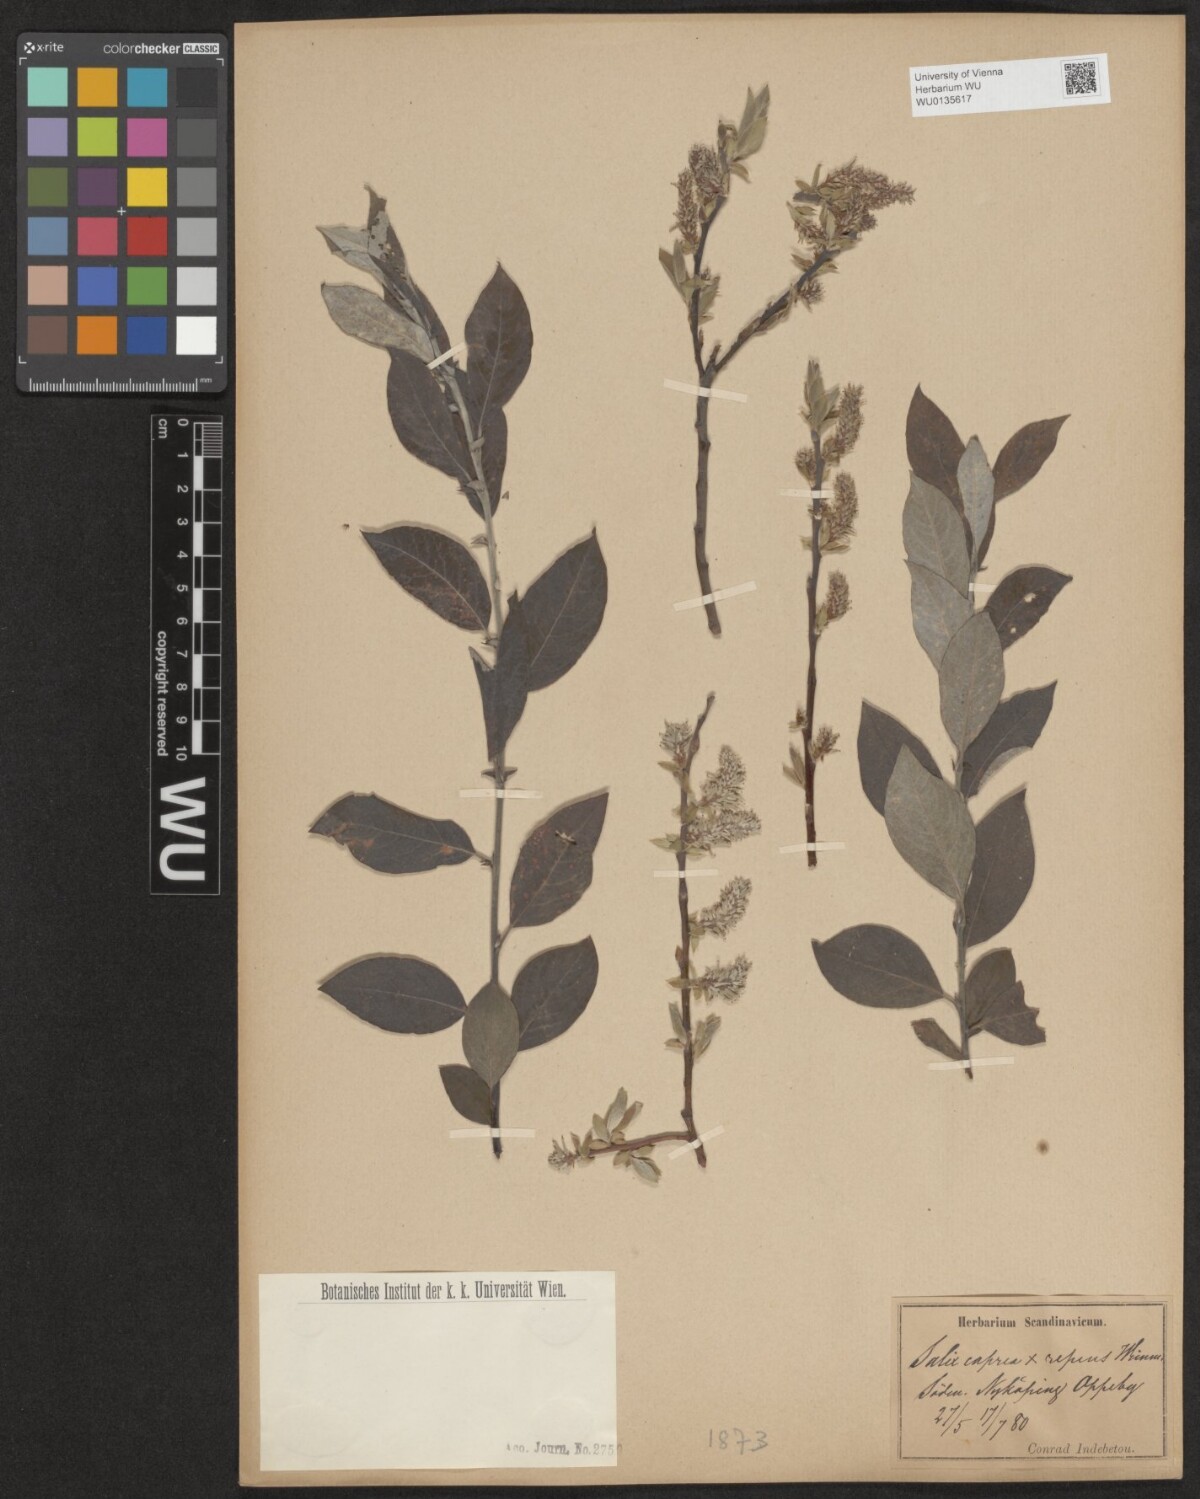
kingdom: Plantae
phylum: Tracheophyta
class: Magnoliopsida
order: Malpighiales
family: Salicaceae
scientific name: Salicaceae
